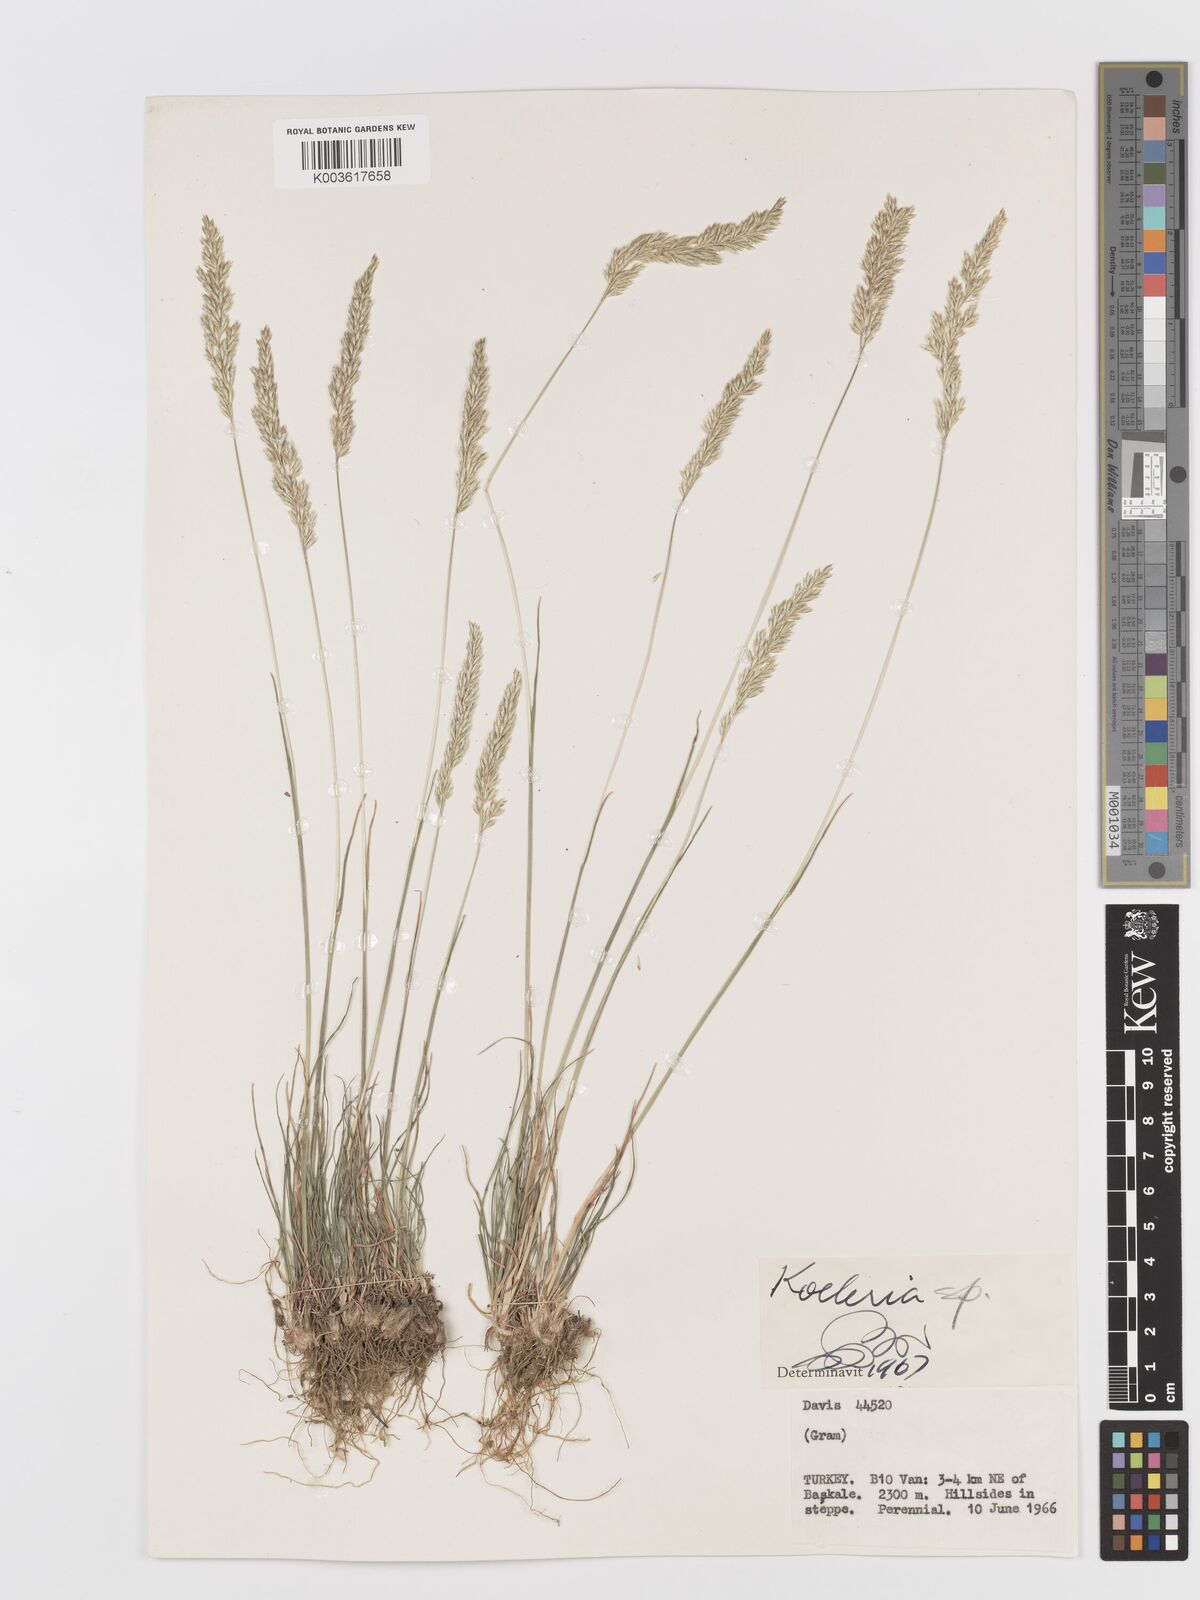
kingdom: Plantae
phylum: Tracheophyta
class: Liliopsida
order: Poales
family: Poaceae
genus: Koeleria
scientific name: Koeleria
